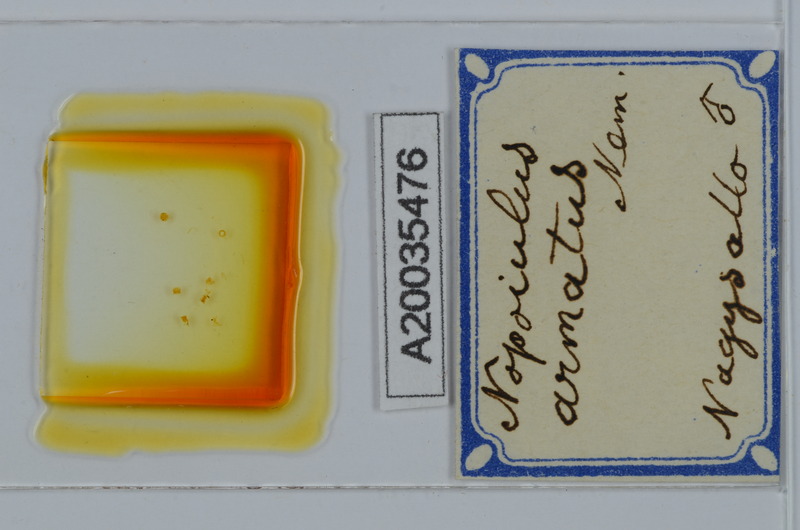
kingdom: Animalia
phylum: Arthropoda
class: Diplopoda
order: Julida
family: Blaniulidae
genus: Nopoiulus
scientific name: Nopoiulus kochii
